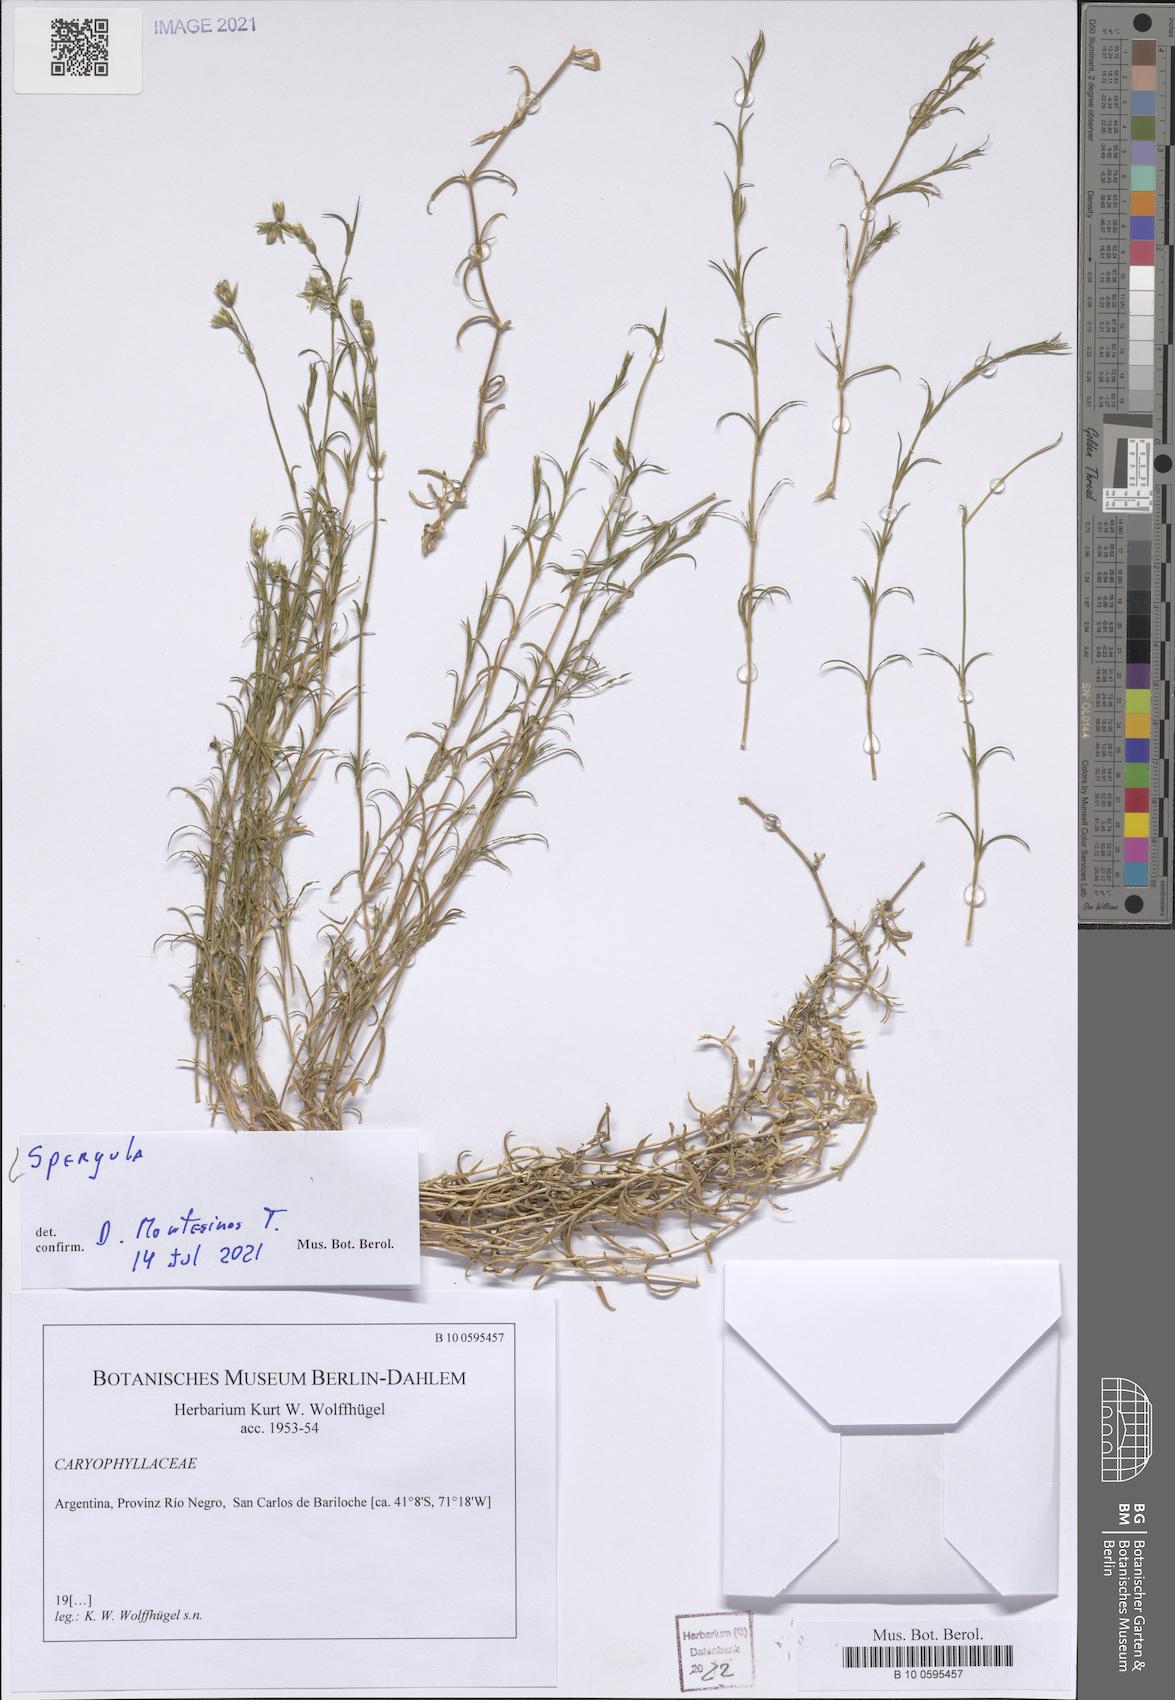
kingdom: Plantae
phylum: Tracheophyta
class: Magnoliopsida
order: Caryophyllales
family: Caryophyllaceae
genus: Spergula
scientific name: Spergula
